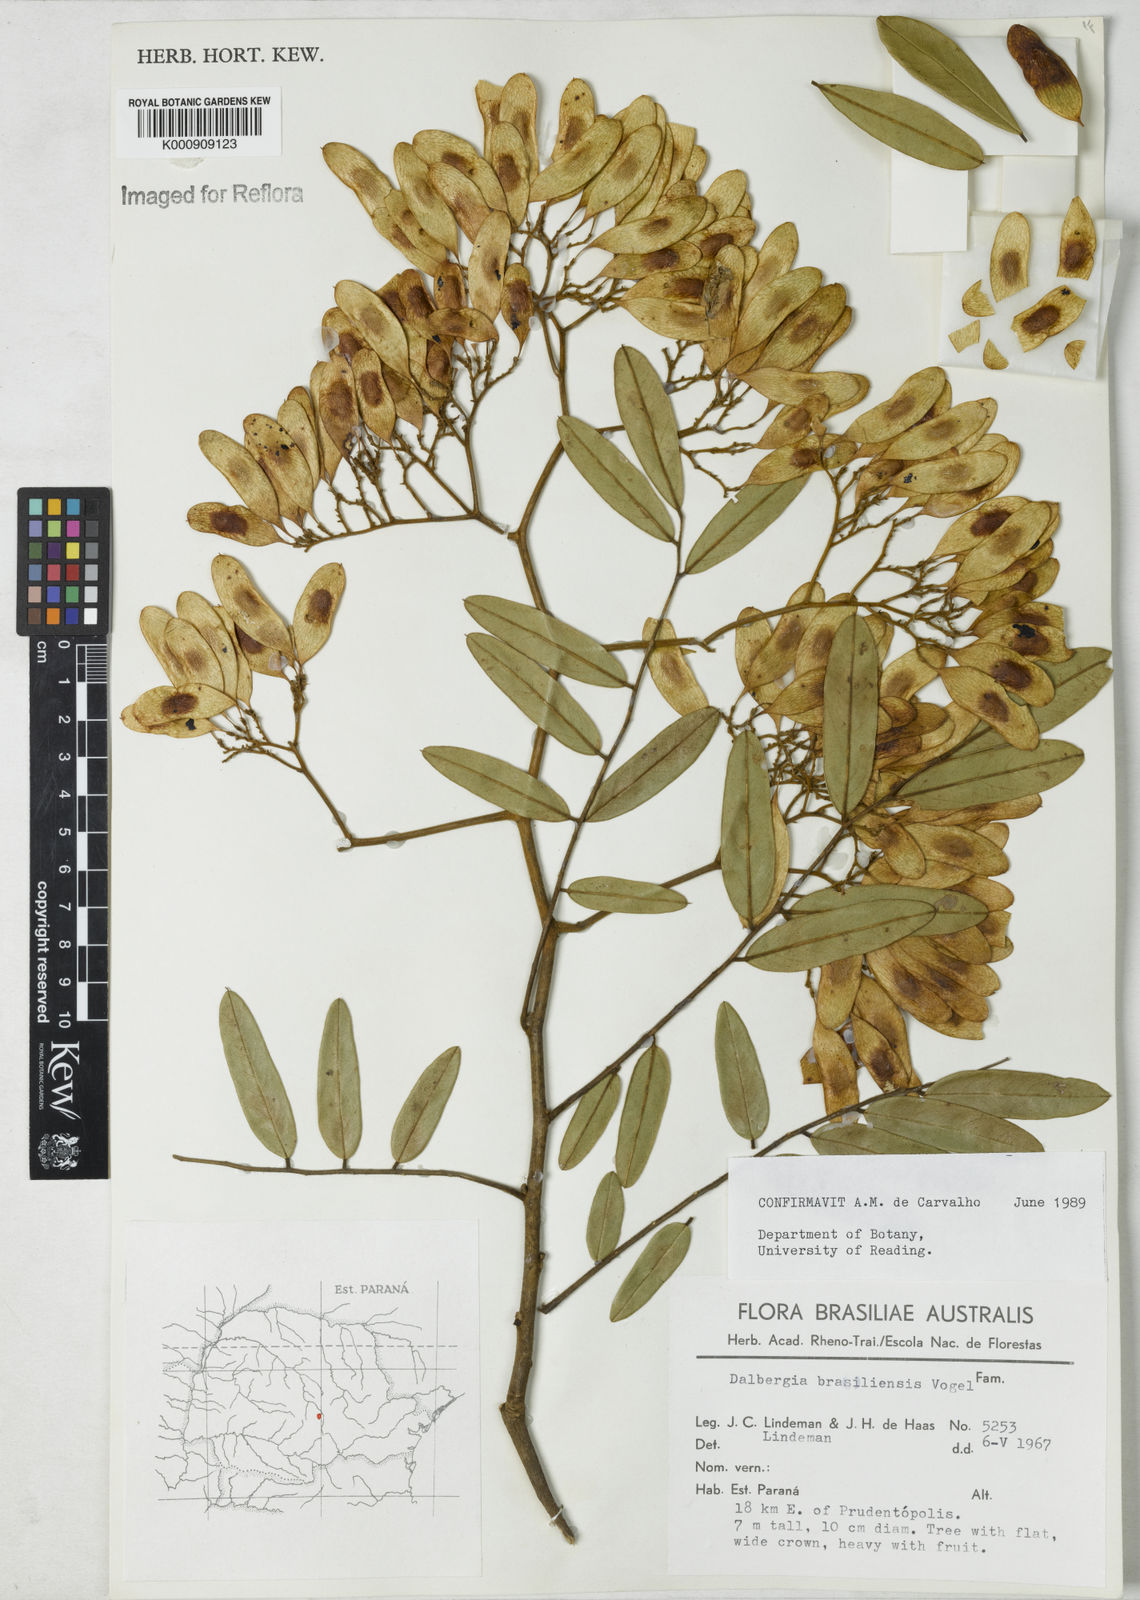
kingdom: Plantae
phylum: Tracheophyta
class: Magnoliopsida
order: Fabales
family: Fabaceae
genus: Dalbergia
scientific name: Dalbergia brasiliensis
